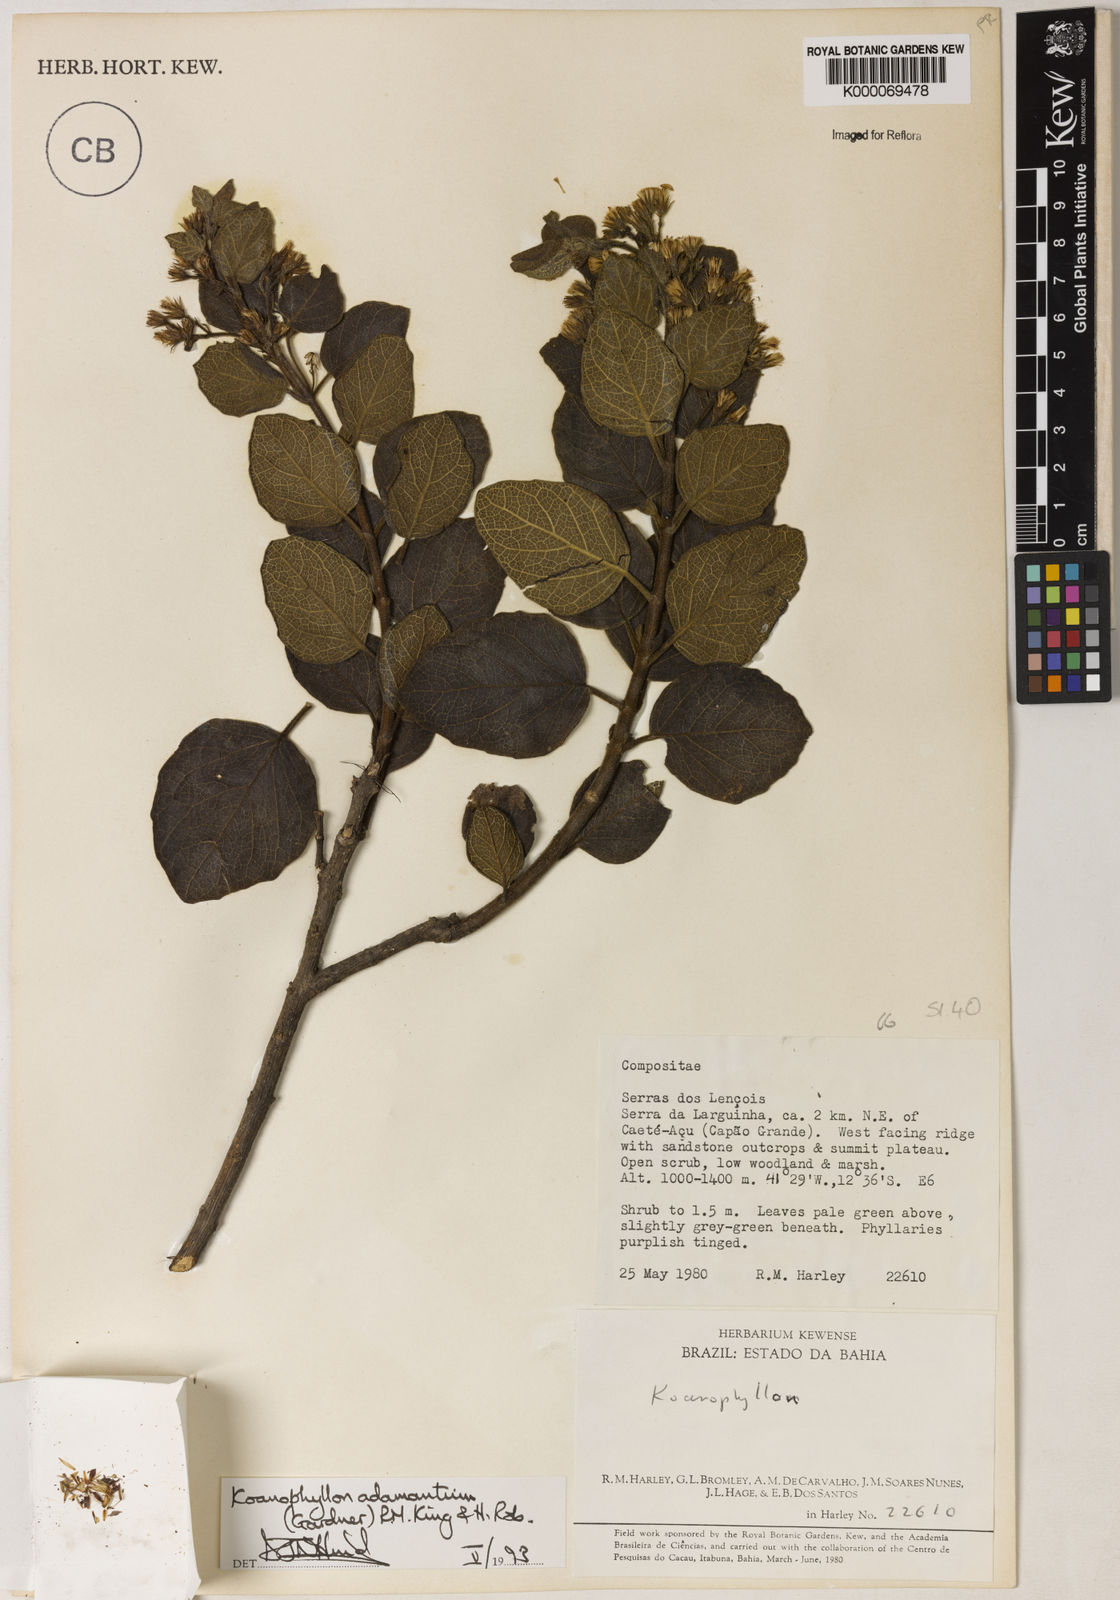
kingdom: Plantae
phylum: Tracheophyta
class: Magnoliopsida
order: Asterales
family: Asteraceae
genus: Koanophyllon
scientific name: Koanophyllon
